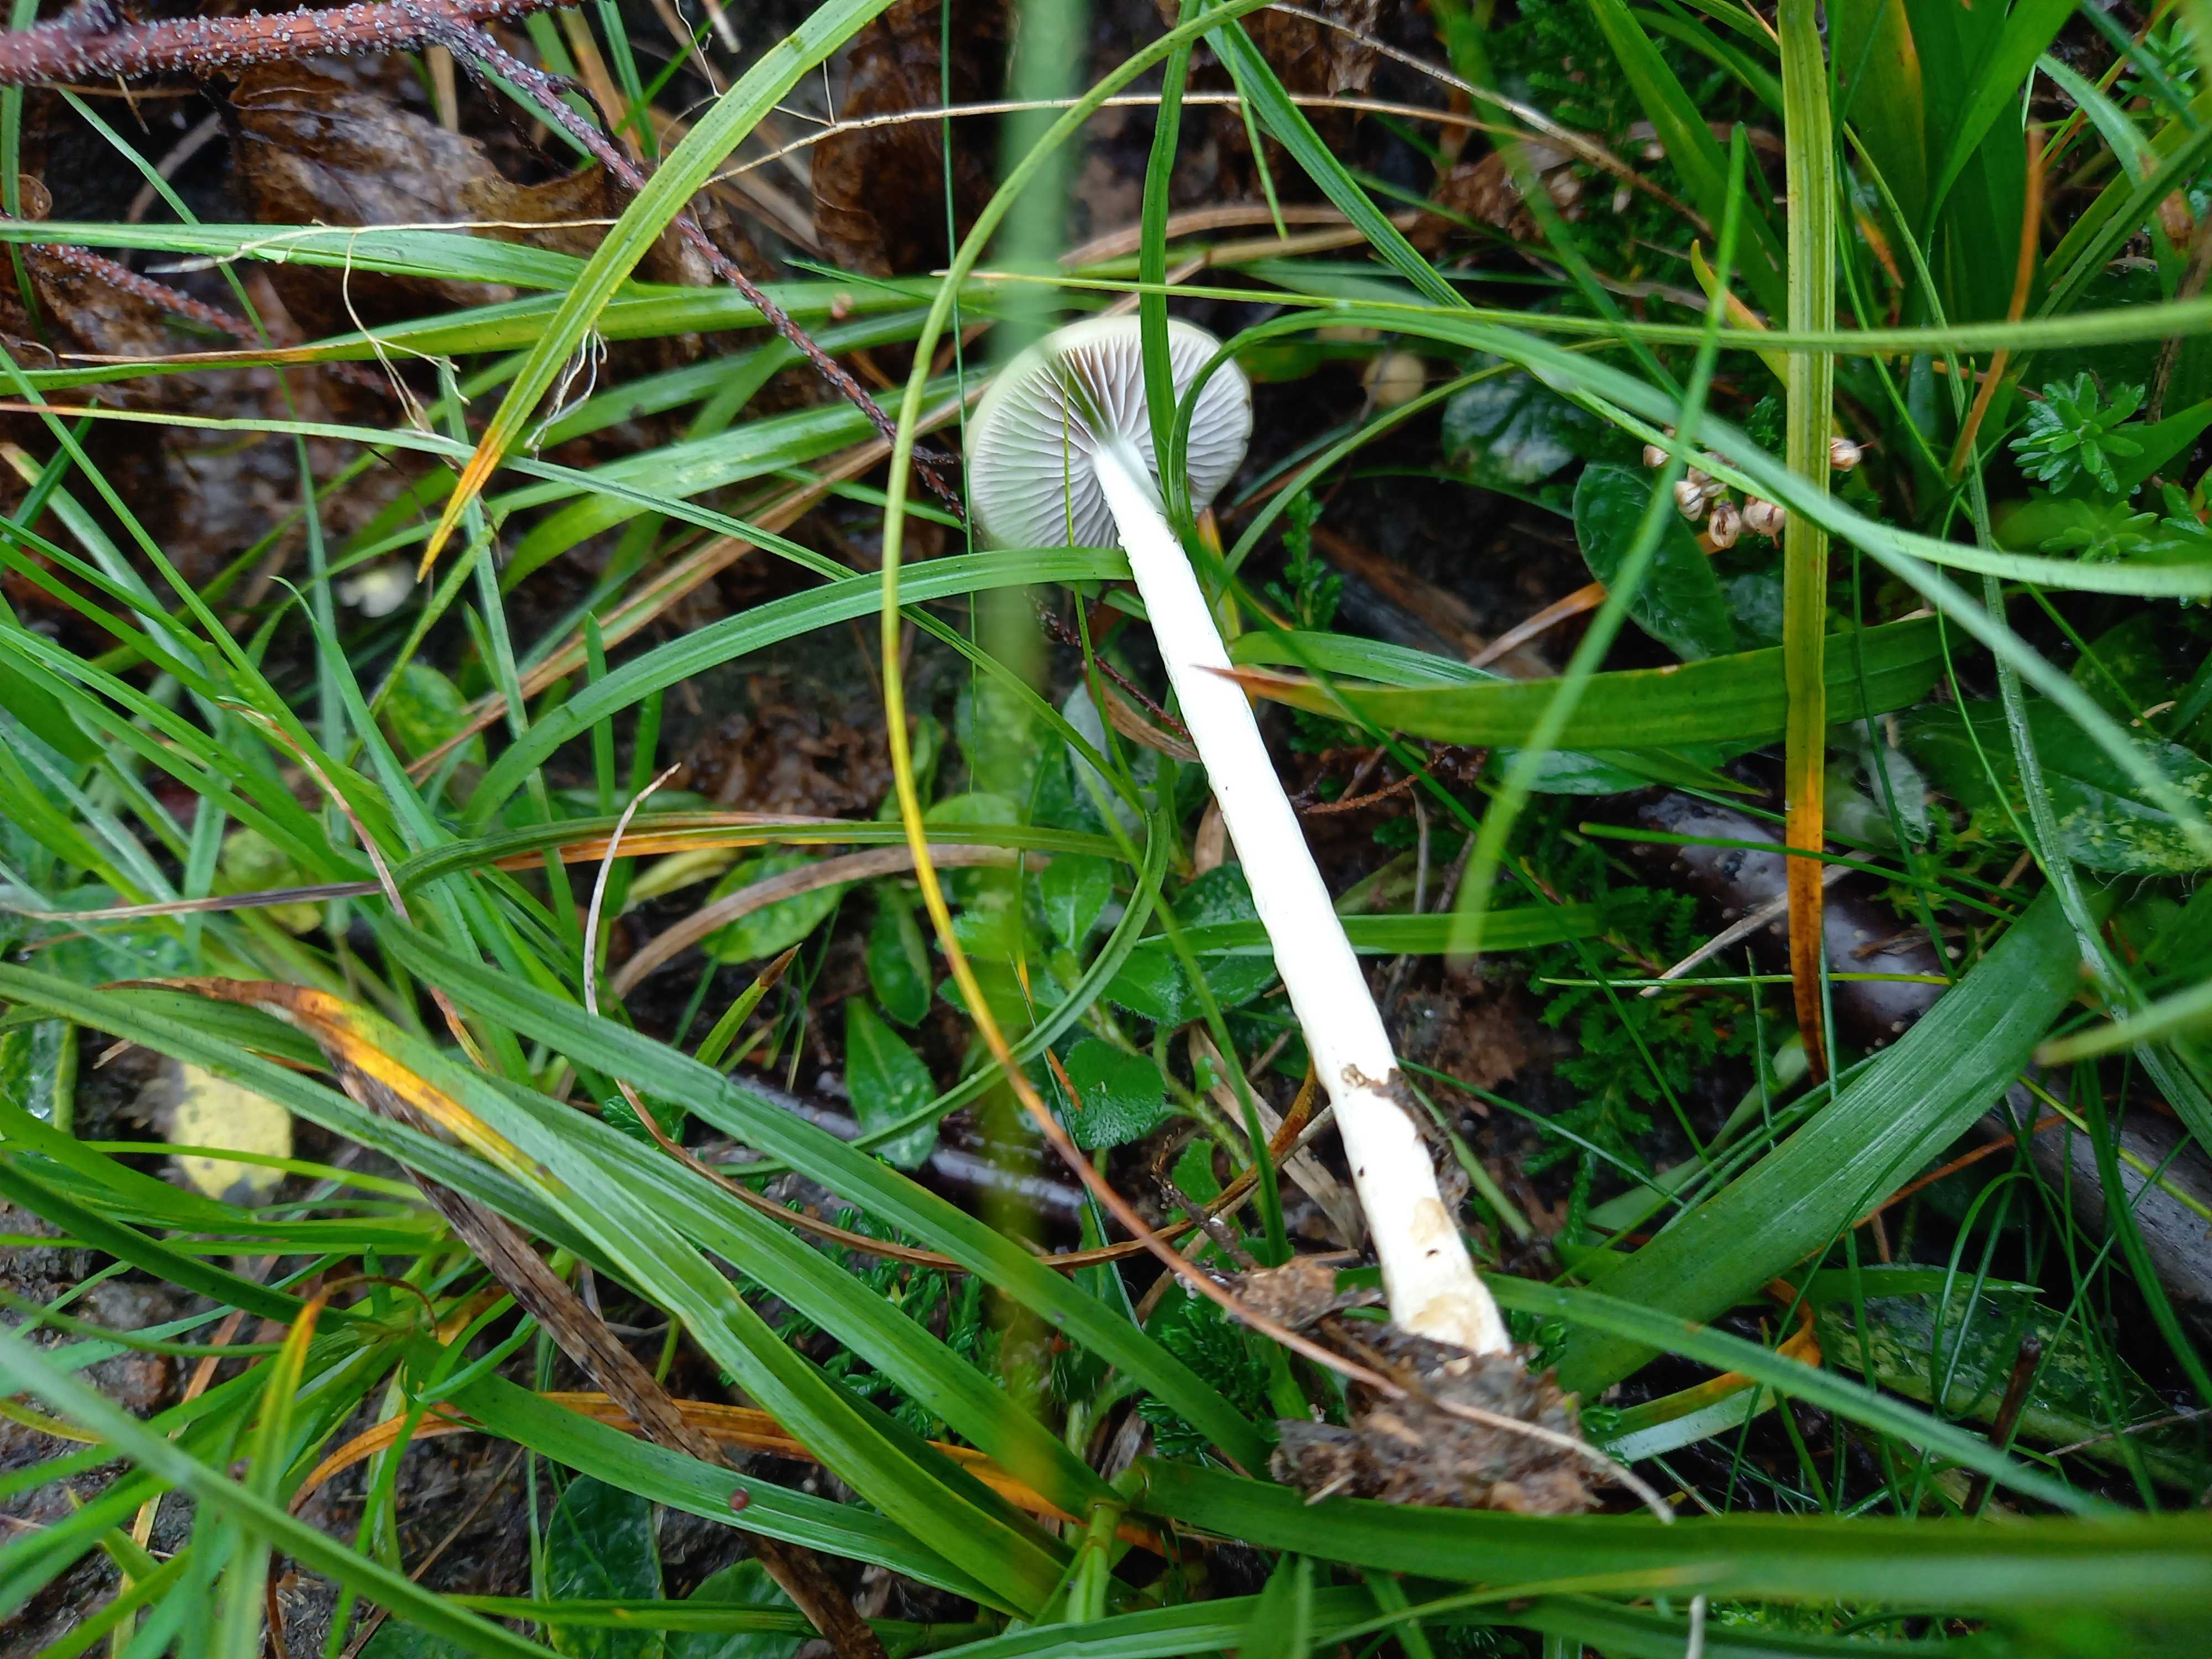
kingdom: Fungi
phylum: Basidiomycota
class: Agaricomycetes
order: Agaricales
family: Strophariaceae
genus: Protostropharia
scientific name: Protostropharia semiglobata
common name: halvkugleformet bredblad
